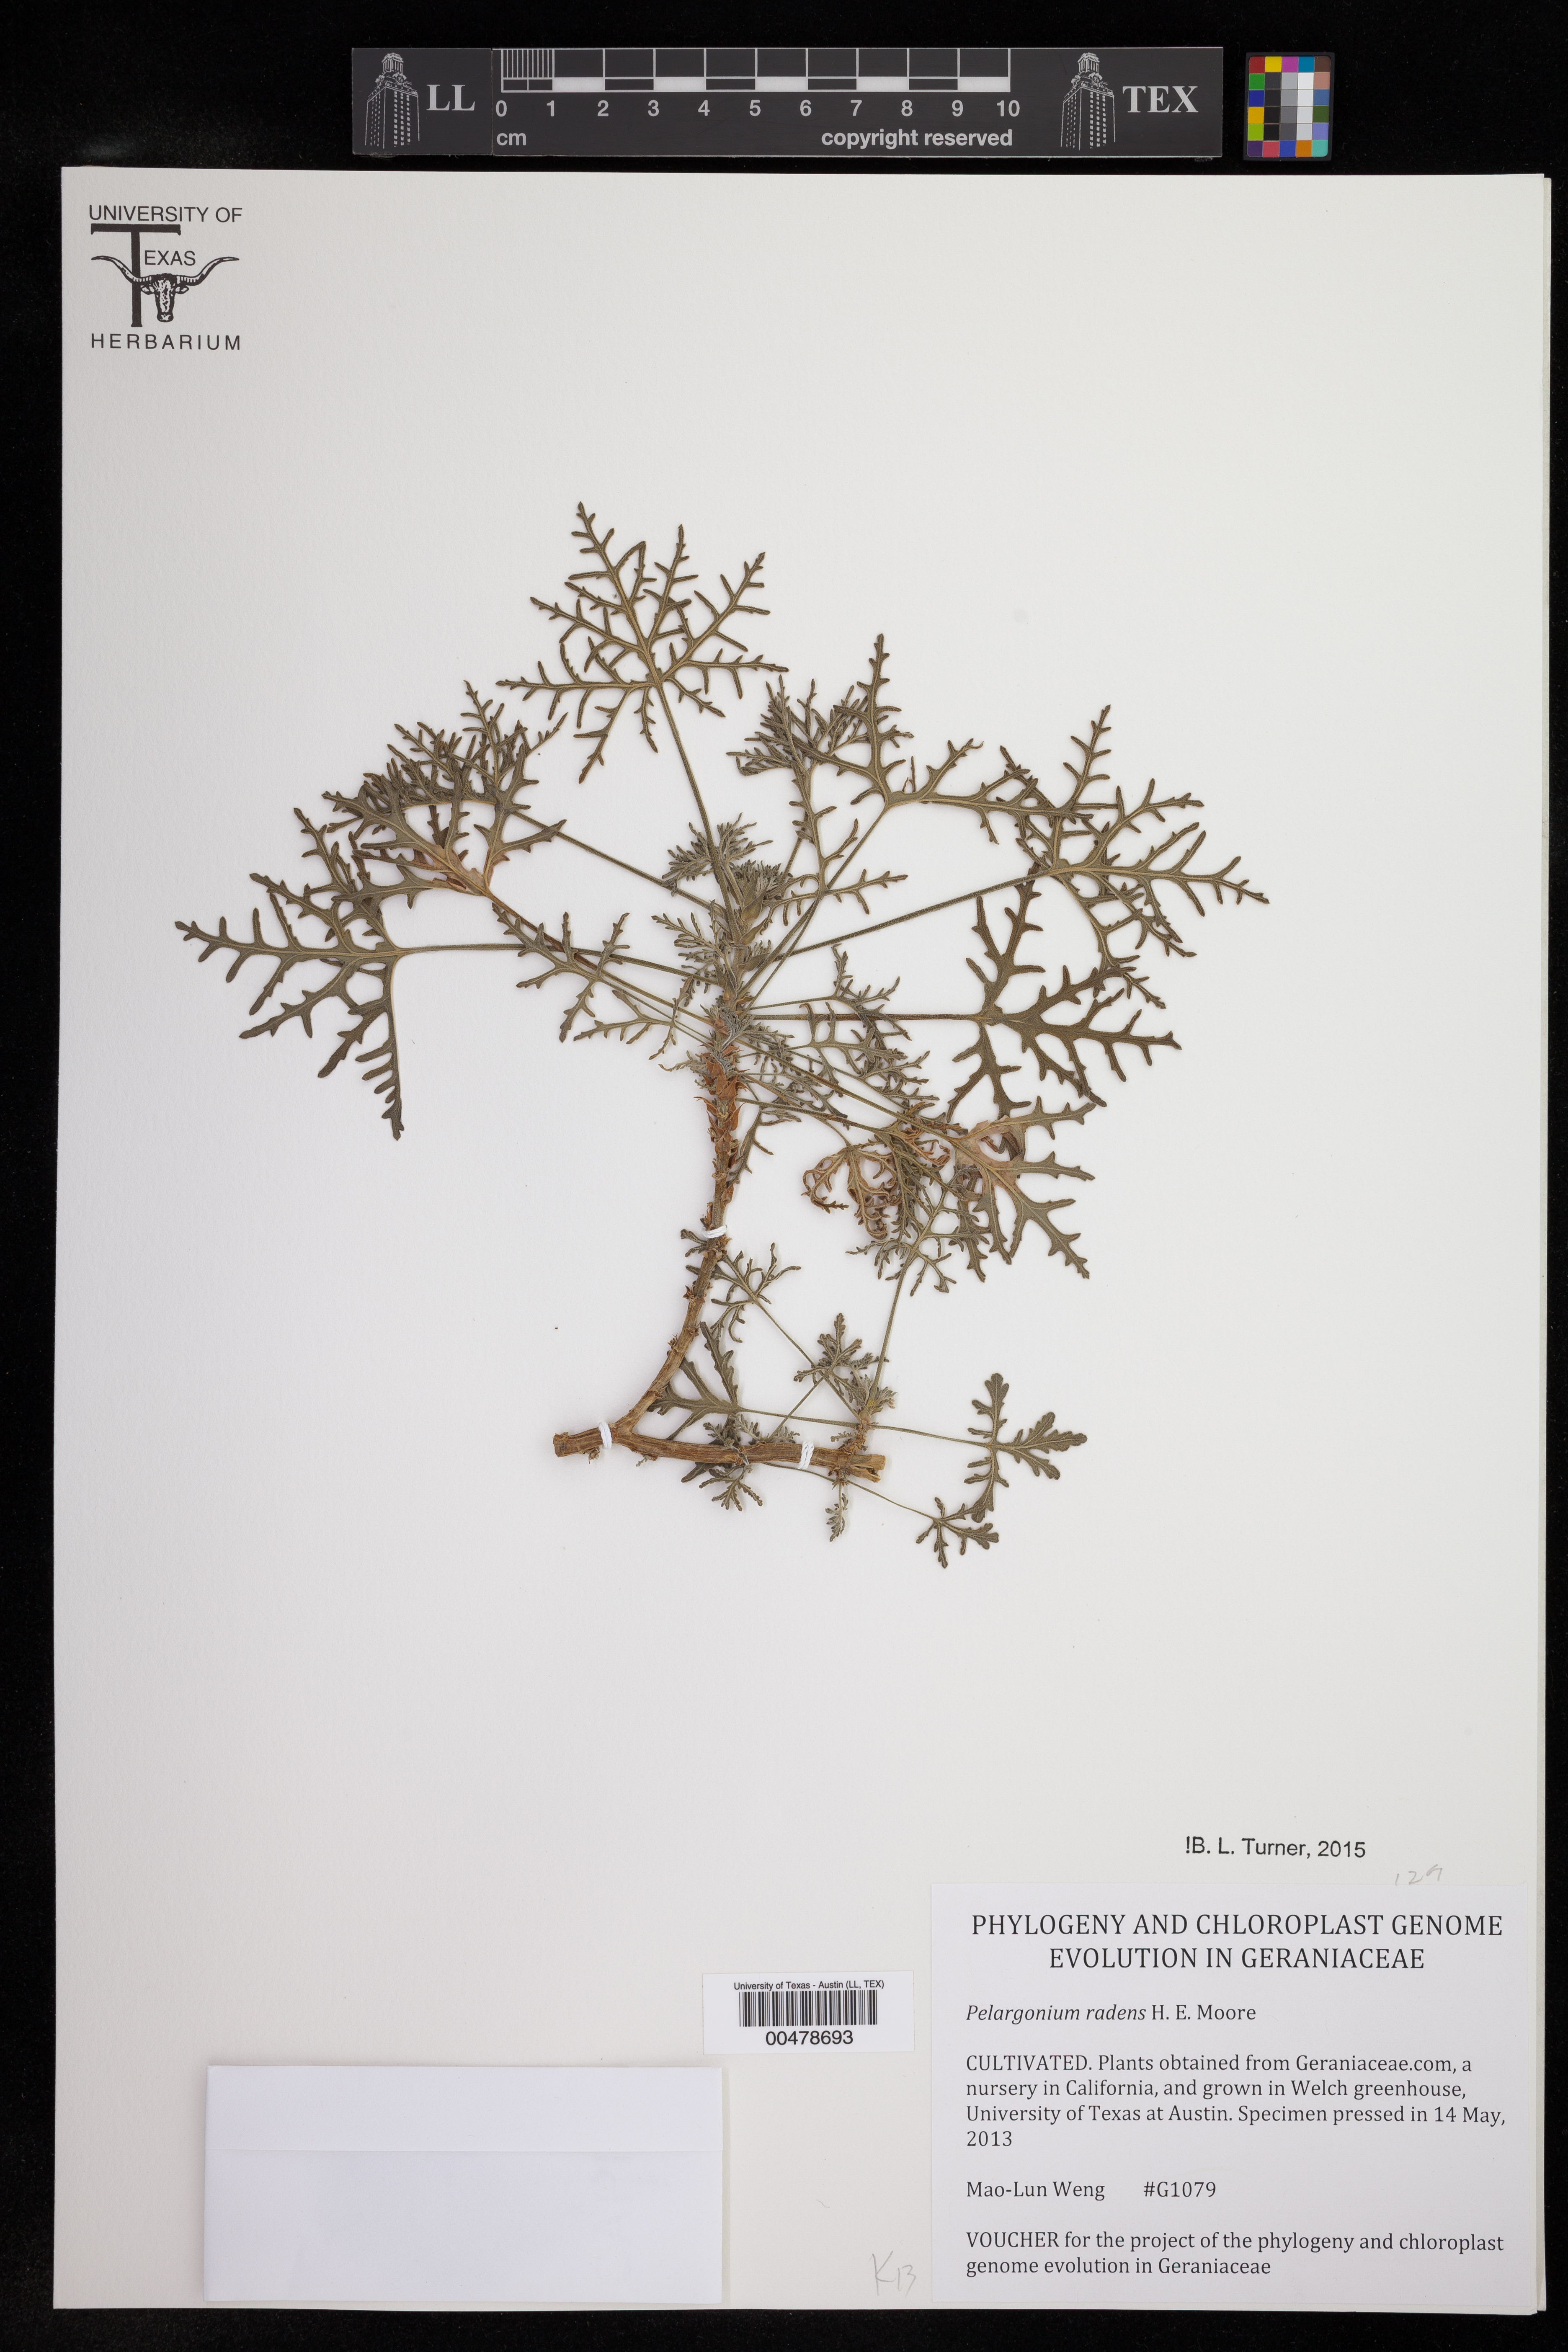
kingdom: Plantae
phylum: Tracheophyta
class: Magnoliopsida
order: Geraniales
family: Geraniaceae
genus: Pelargonium
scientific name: Pelargonium radens
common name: Rasp-leaf pelargonium
